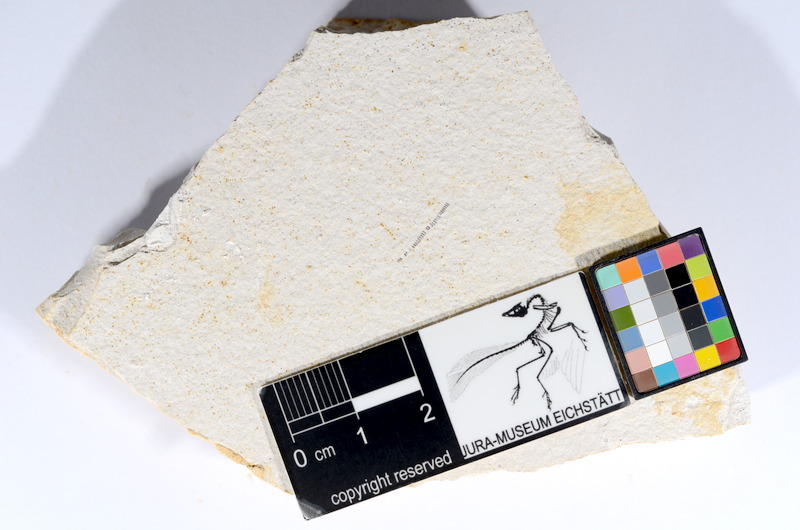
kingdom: Animalia
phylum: Chordata
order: Salmoniformes
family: Orthogonikleithridae
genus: Orthogonikleithrus
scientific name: Orthogonikleithrus hoelli
